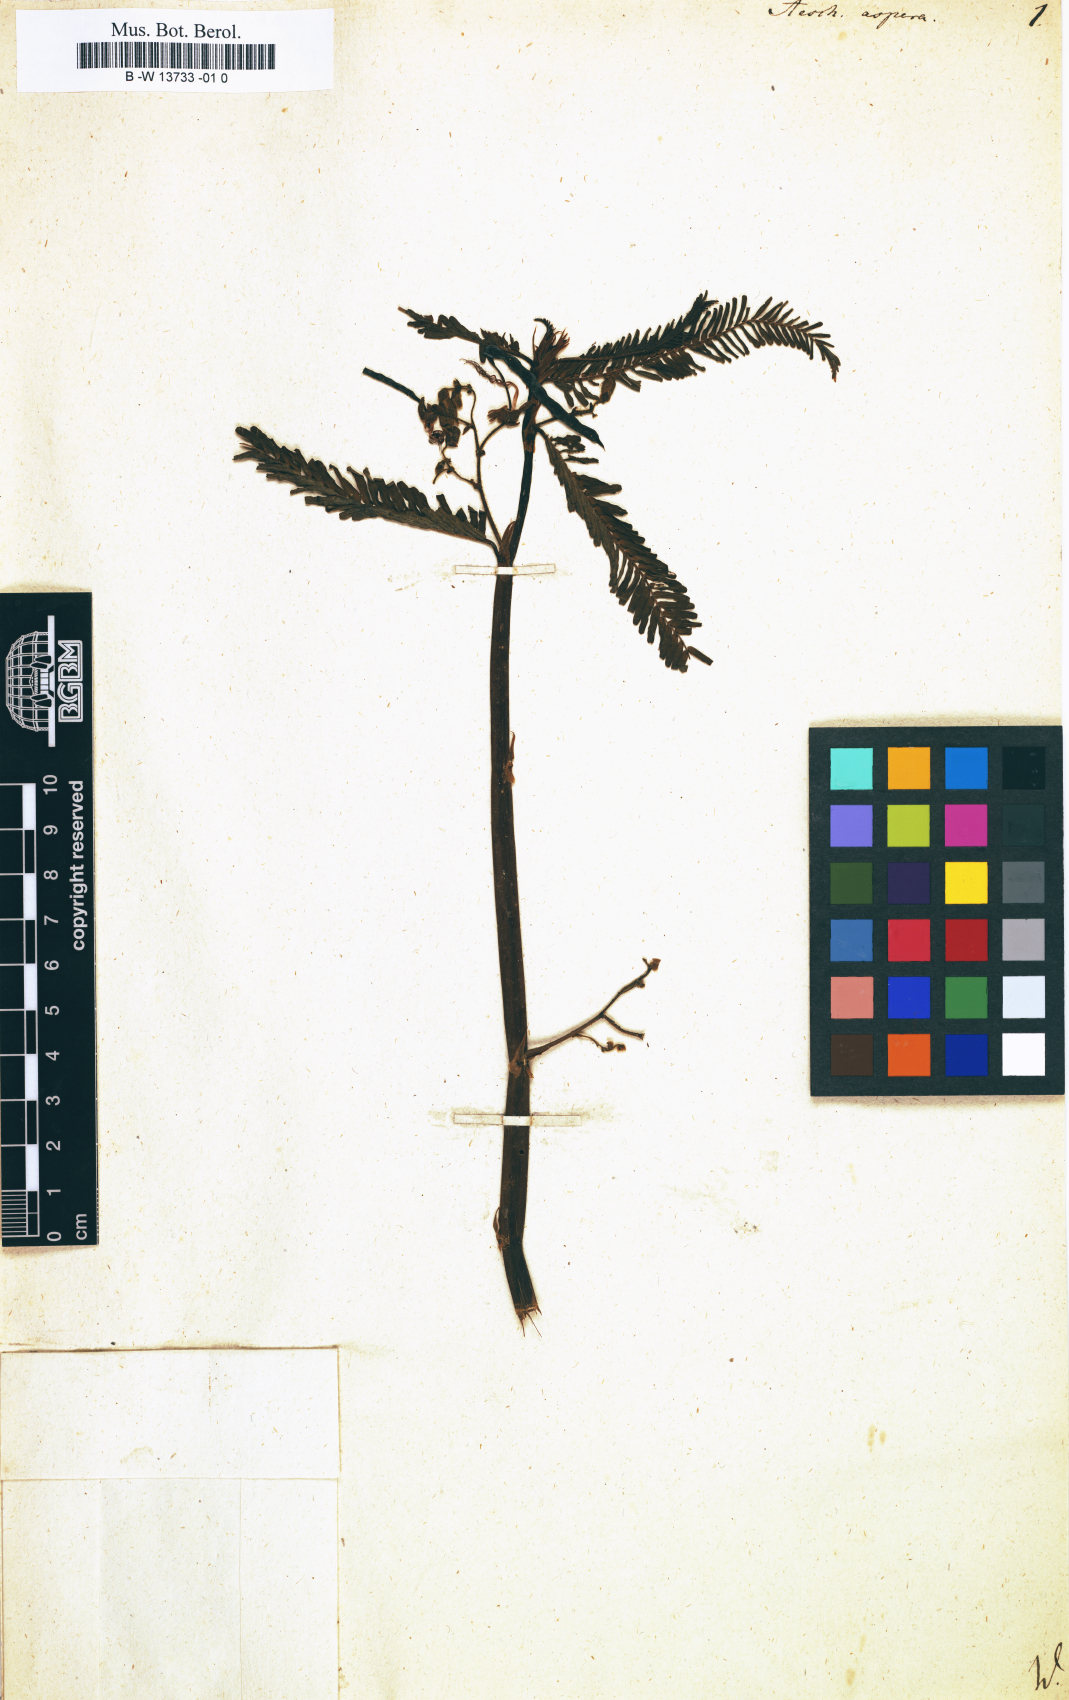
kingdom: Plantae
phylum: Tracheophyta
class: Magnoliopsida
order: Fabales
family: Fabaceae
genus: Aeschynomene
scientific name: Aeschynomene aspera
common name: Pith plant
